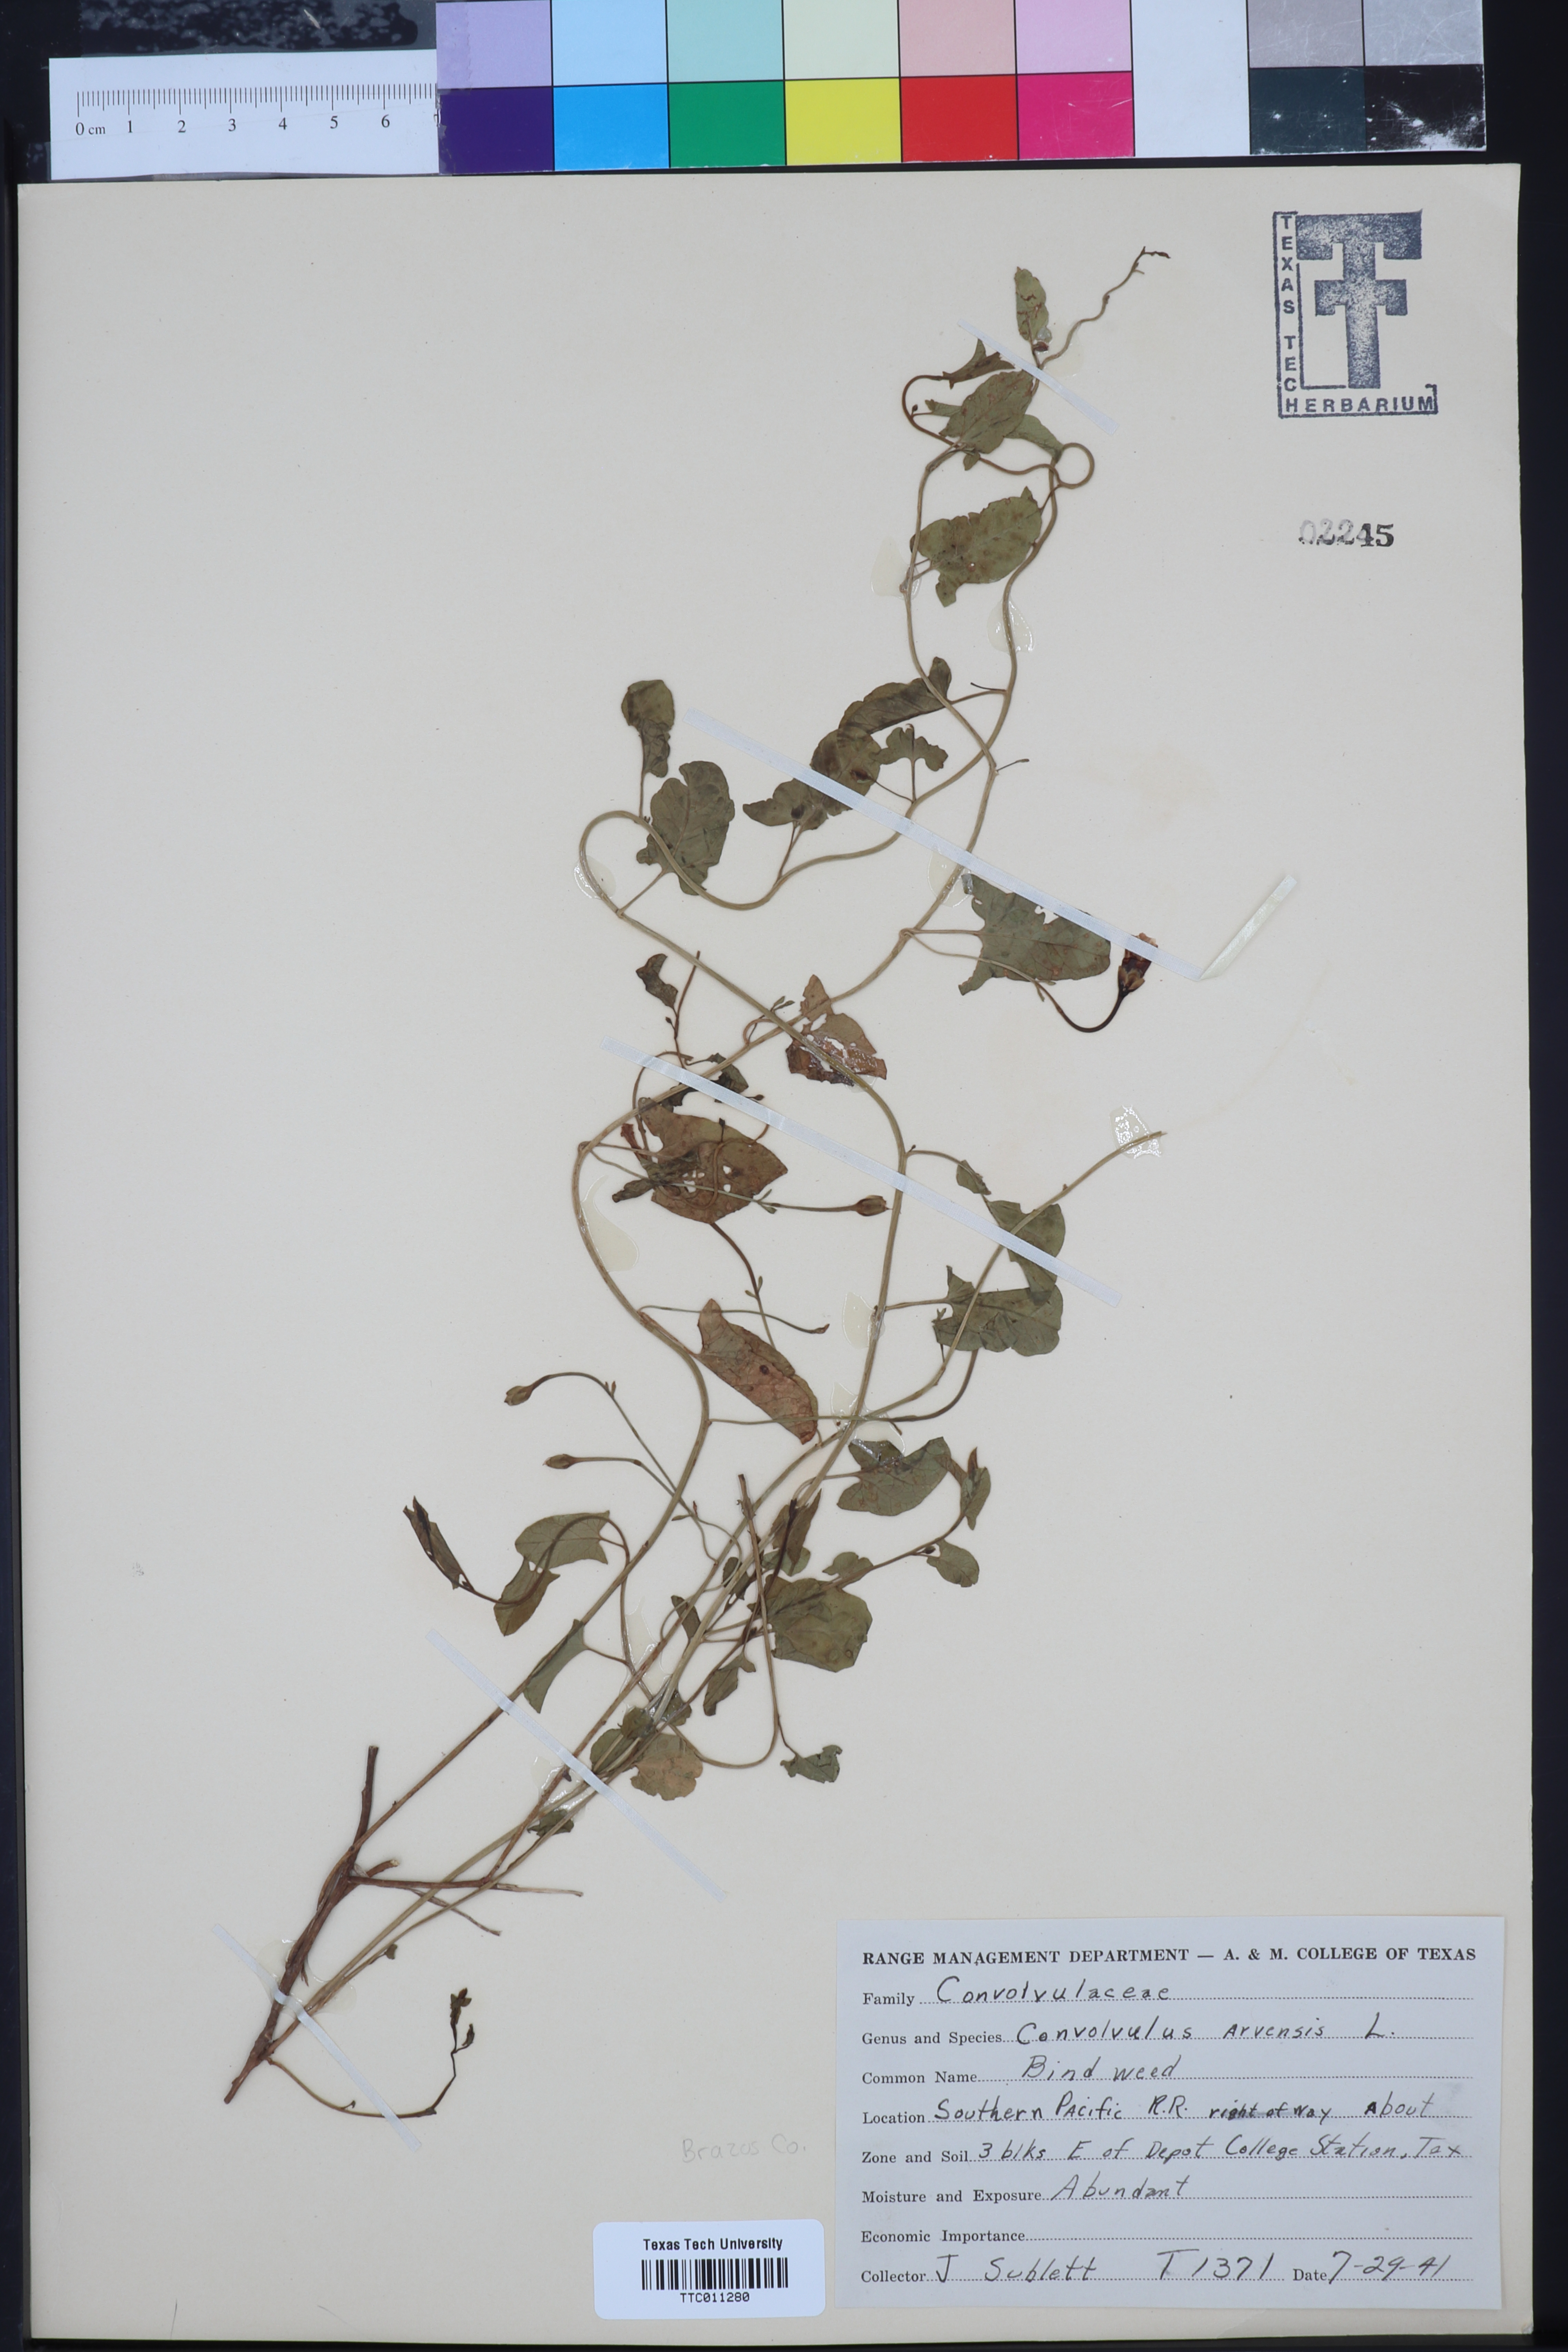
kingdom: Plantae
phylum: Tracheophyta
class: Magnoliopsida
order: Solanales
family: Convolvulaceae
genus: Convolvulus
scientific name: Convolvulus arvensis
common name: Field bindweed
